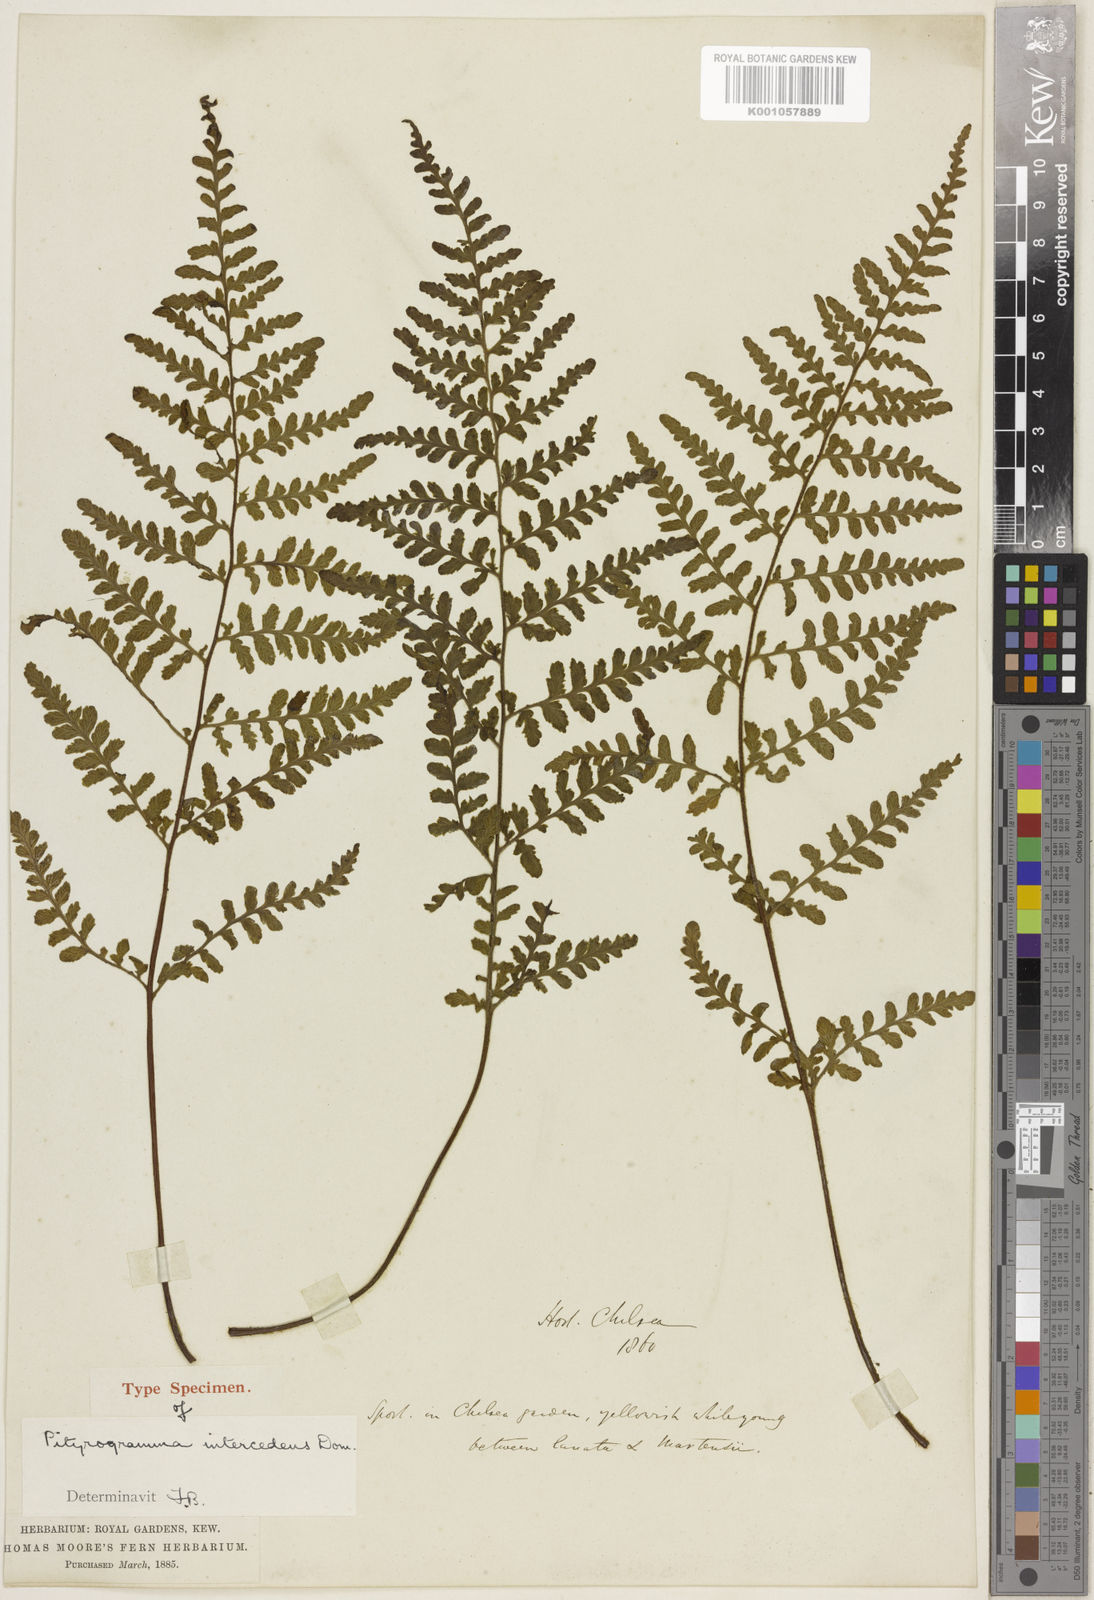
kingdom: Plantae
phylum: Tracheophyta
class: Polypodiopsida
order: Polypodiales
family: Pteridaceae
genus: Pityrogramma
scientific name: Pityrogramma
